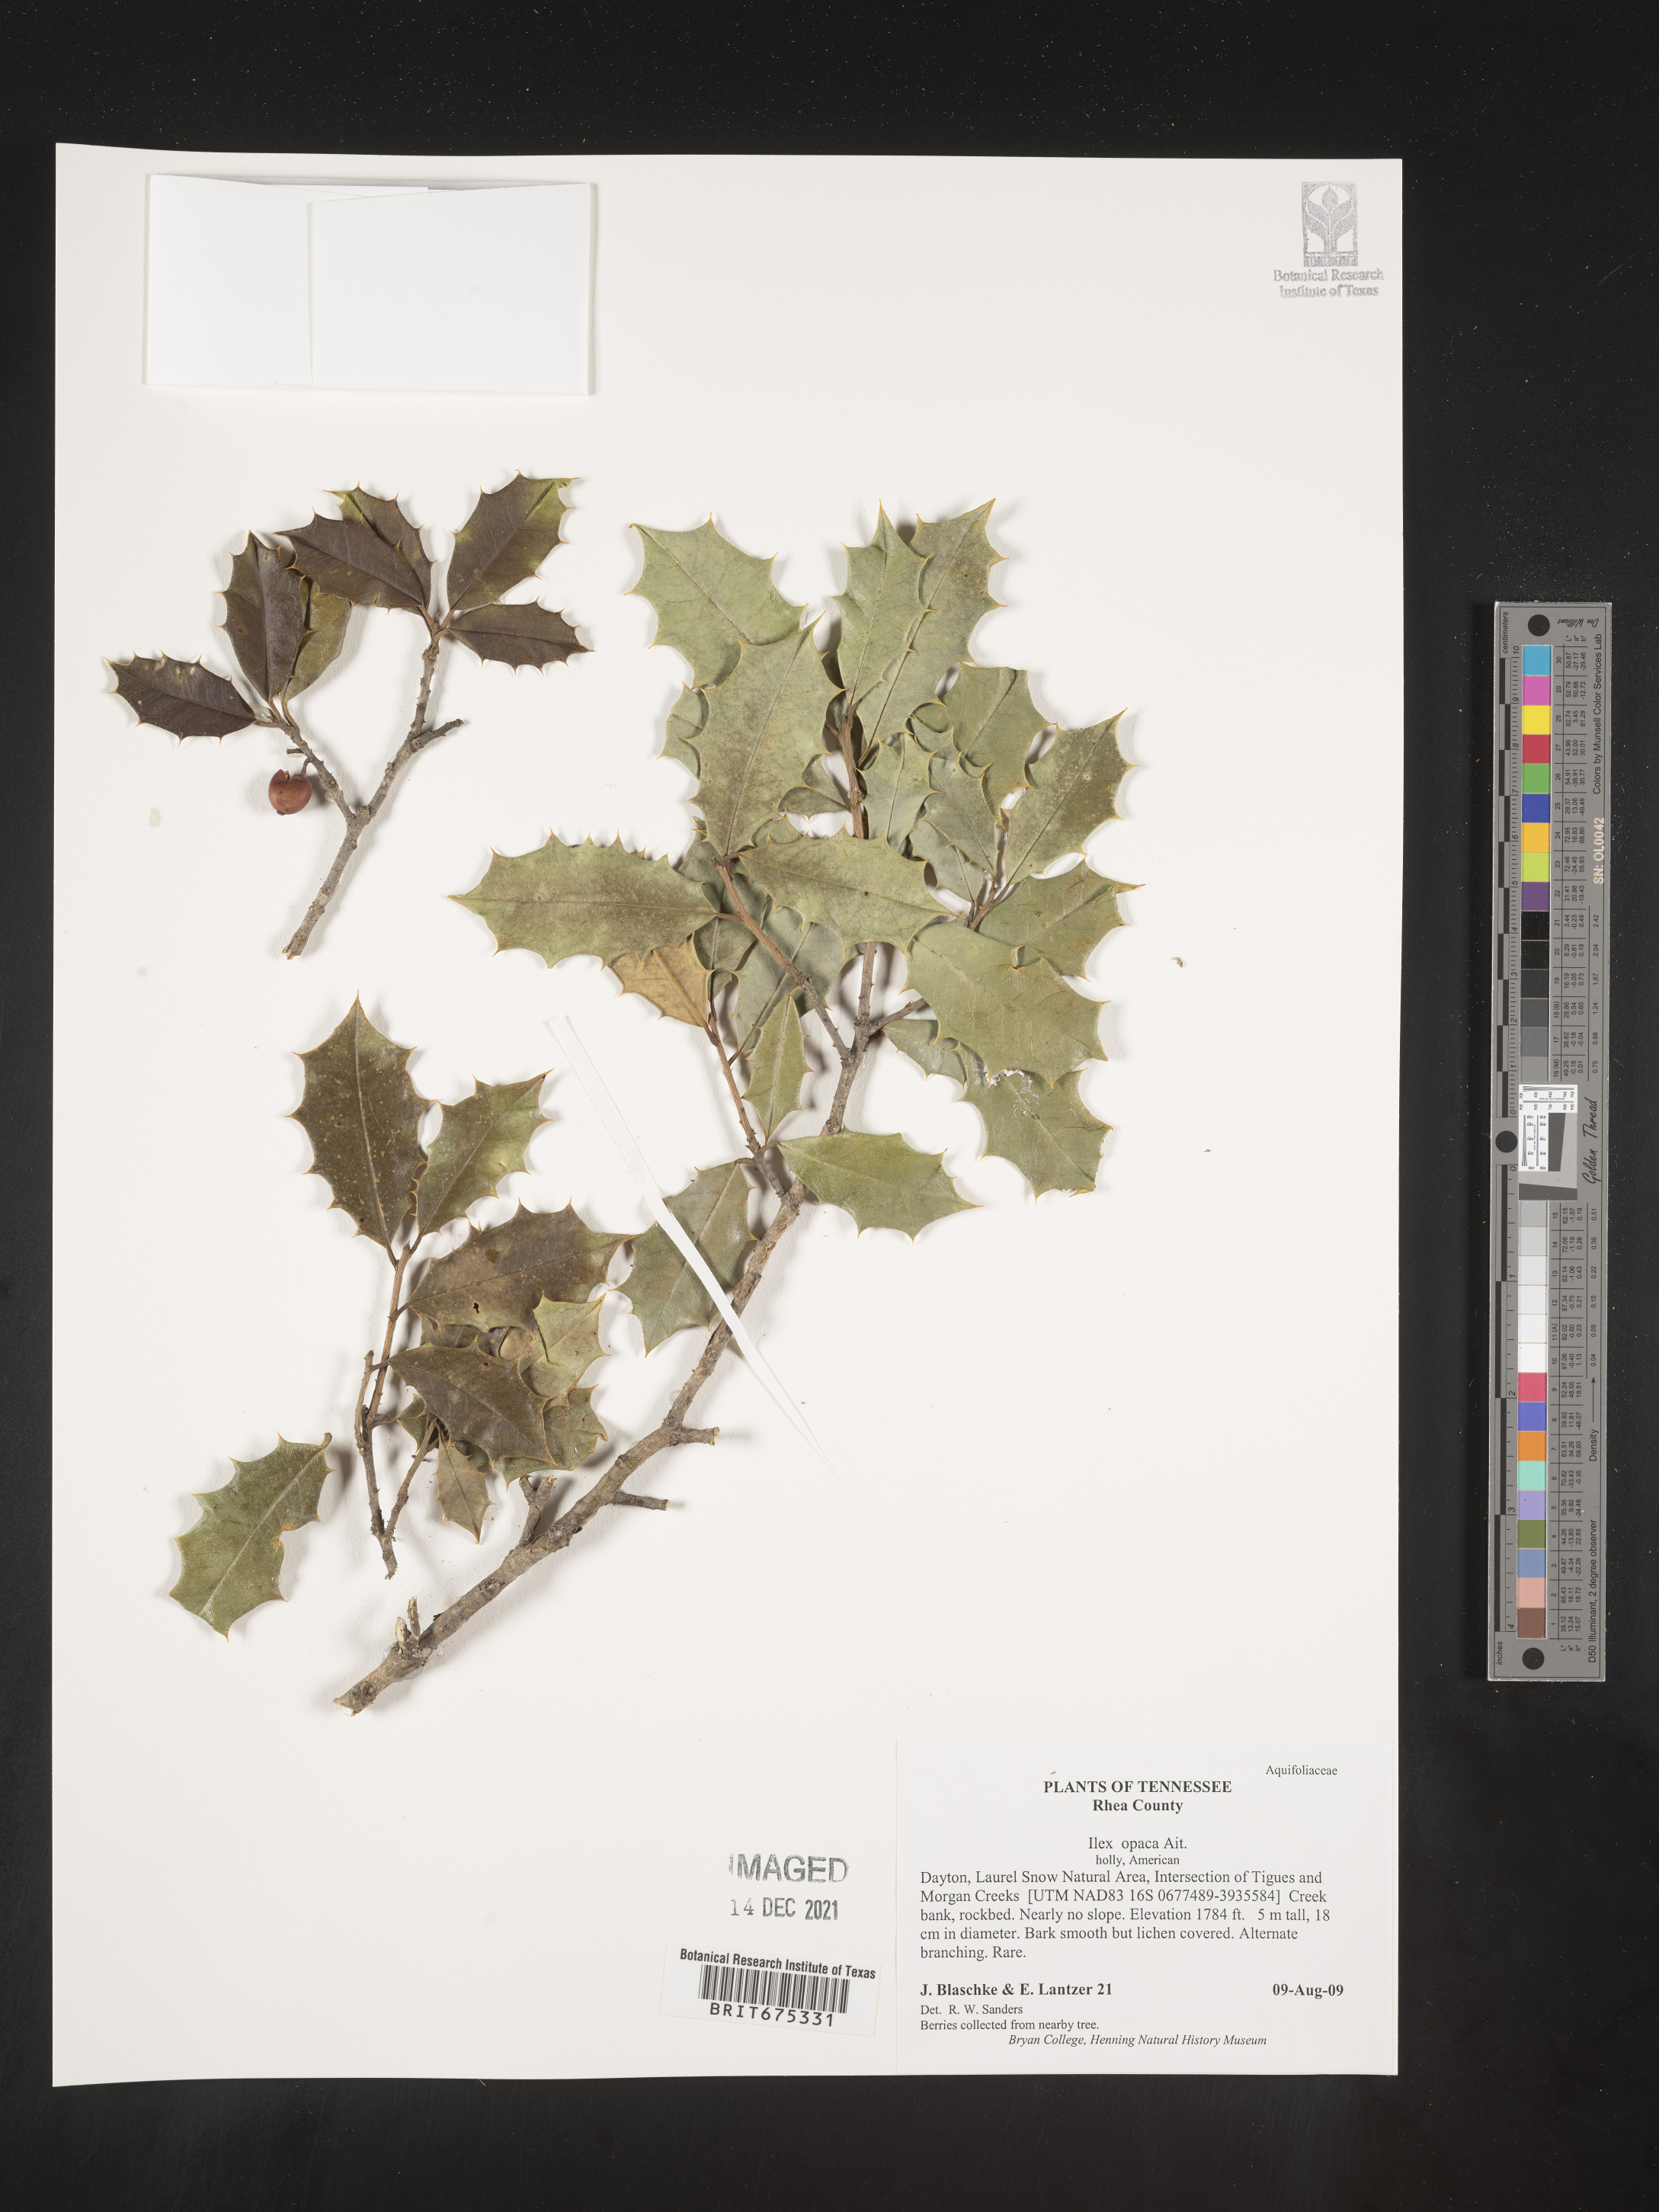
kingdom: Plantae
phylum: Tracheophyta
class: Magnoliopsida
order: Aquifoliales
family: Aquifoliaceae
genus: Ilex
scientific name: Ilex opaca
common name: American holly
